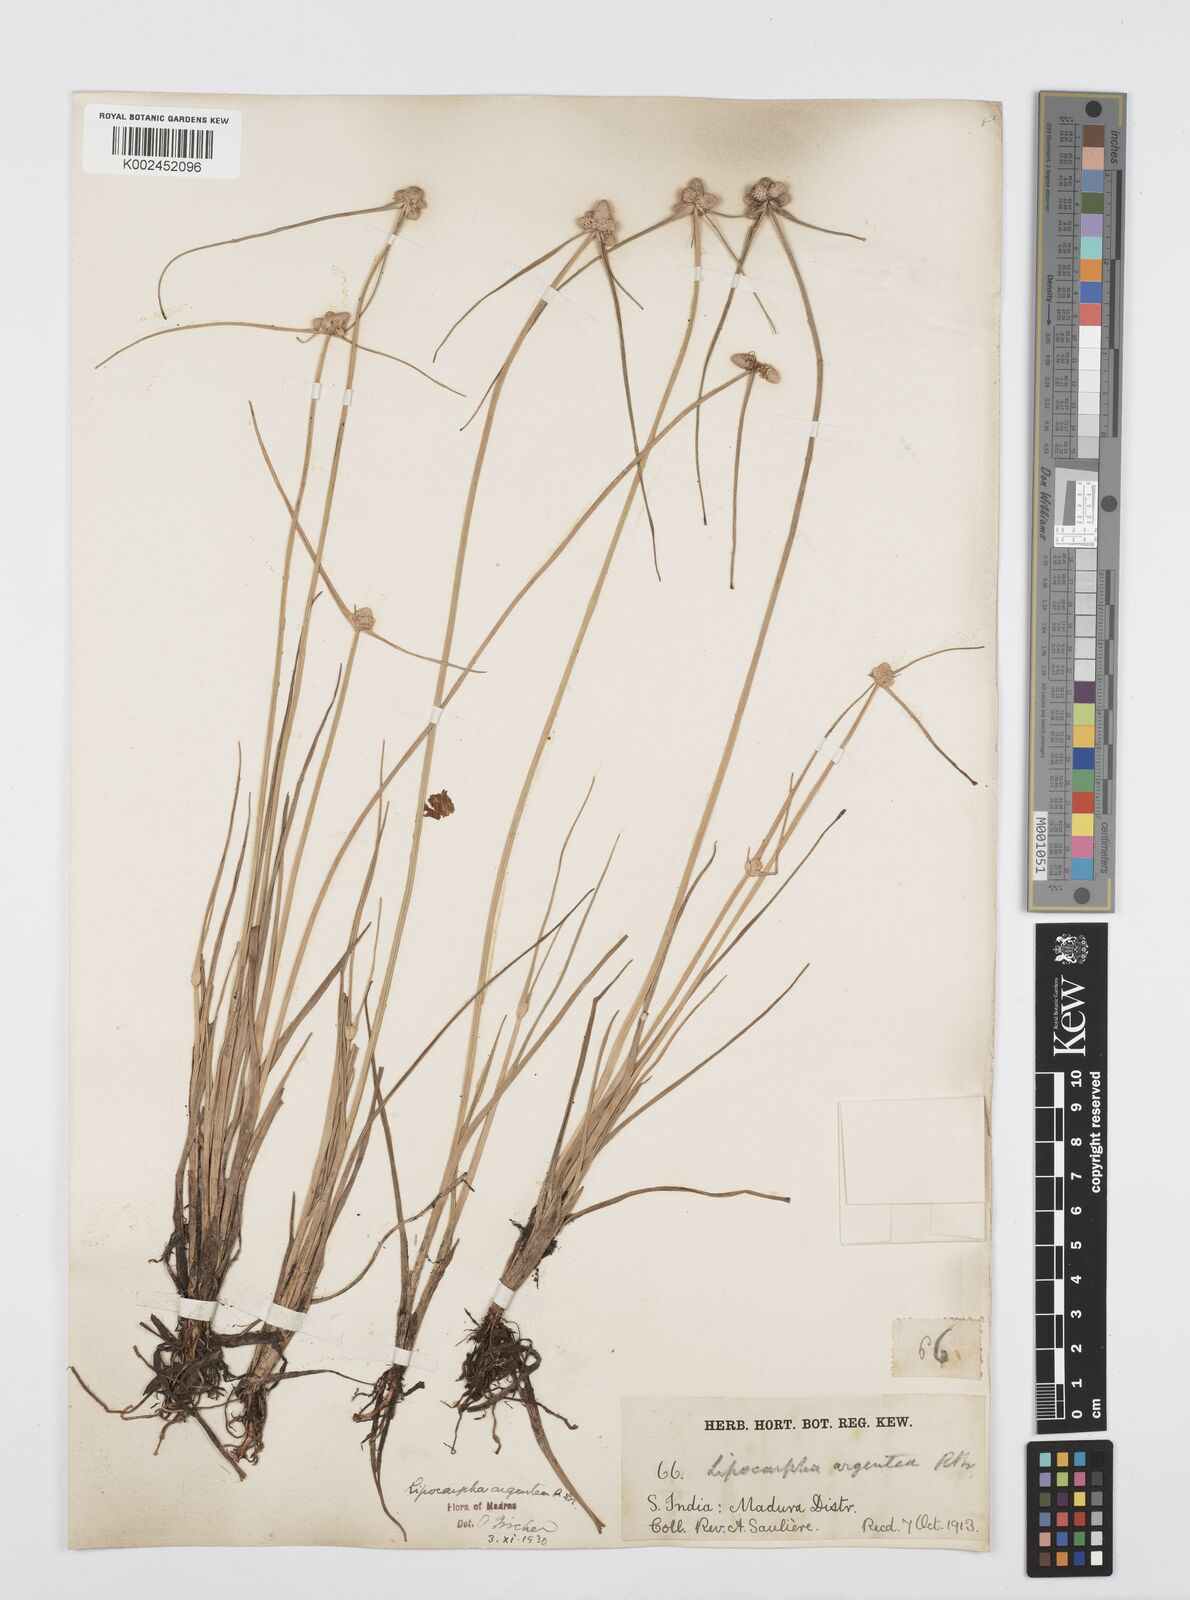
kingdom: Plantae
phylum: Tracheophyta
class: Liliopsida
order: Poales
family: Cyperaceae
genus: Cyperus
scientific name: Cyperus
